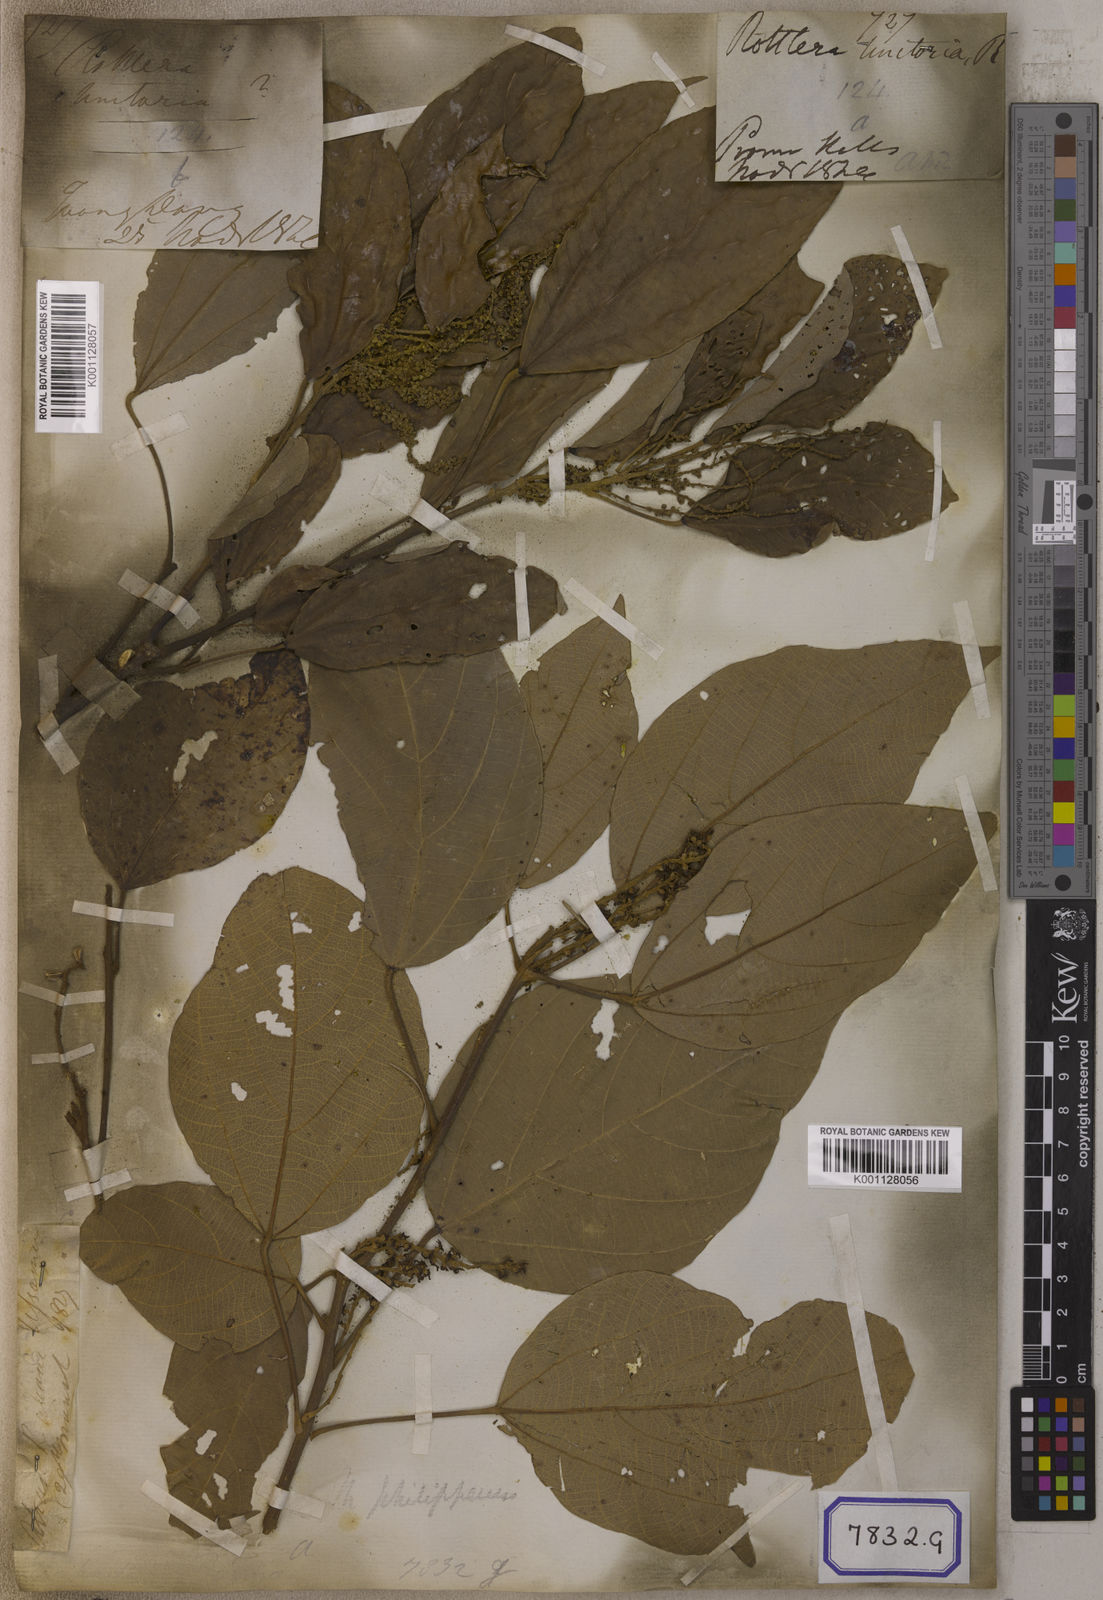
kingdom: Plantae
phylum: Tracheophyta
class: Magnoliopsida
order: Malpighiales
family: Euphorbiaceae
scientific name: Euphorbiaceae
